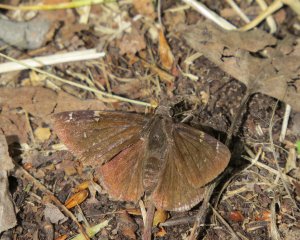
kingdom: Animalia
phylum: Arthropoda
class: Insecta
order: Lepidoptera
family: Hesperiidae
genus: Autochton
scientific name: Autochton
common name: Northern Cloudywing
